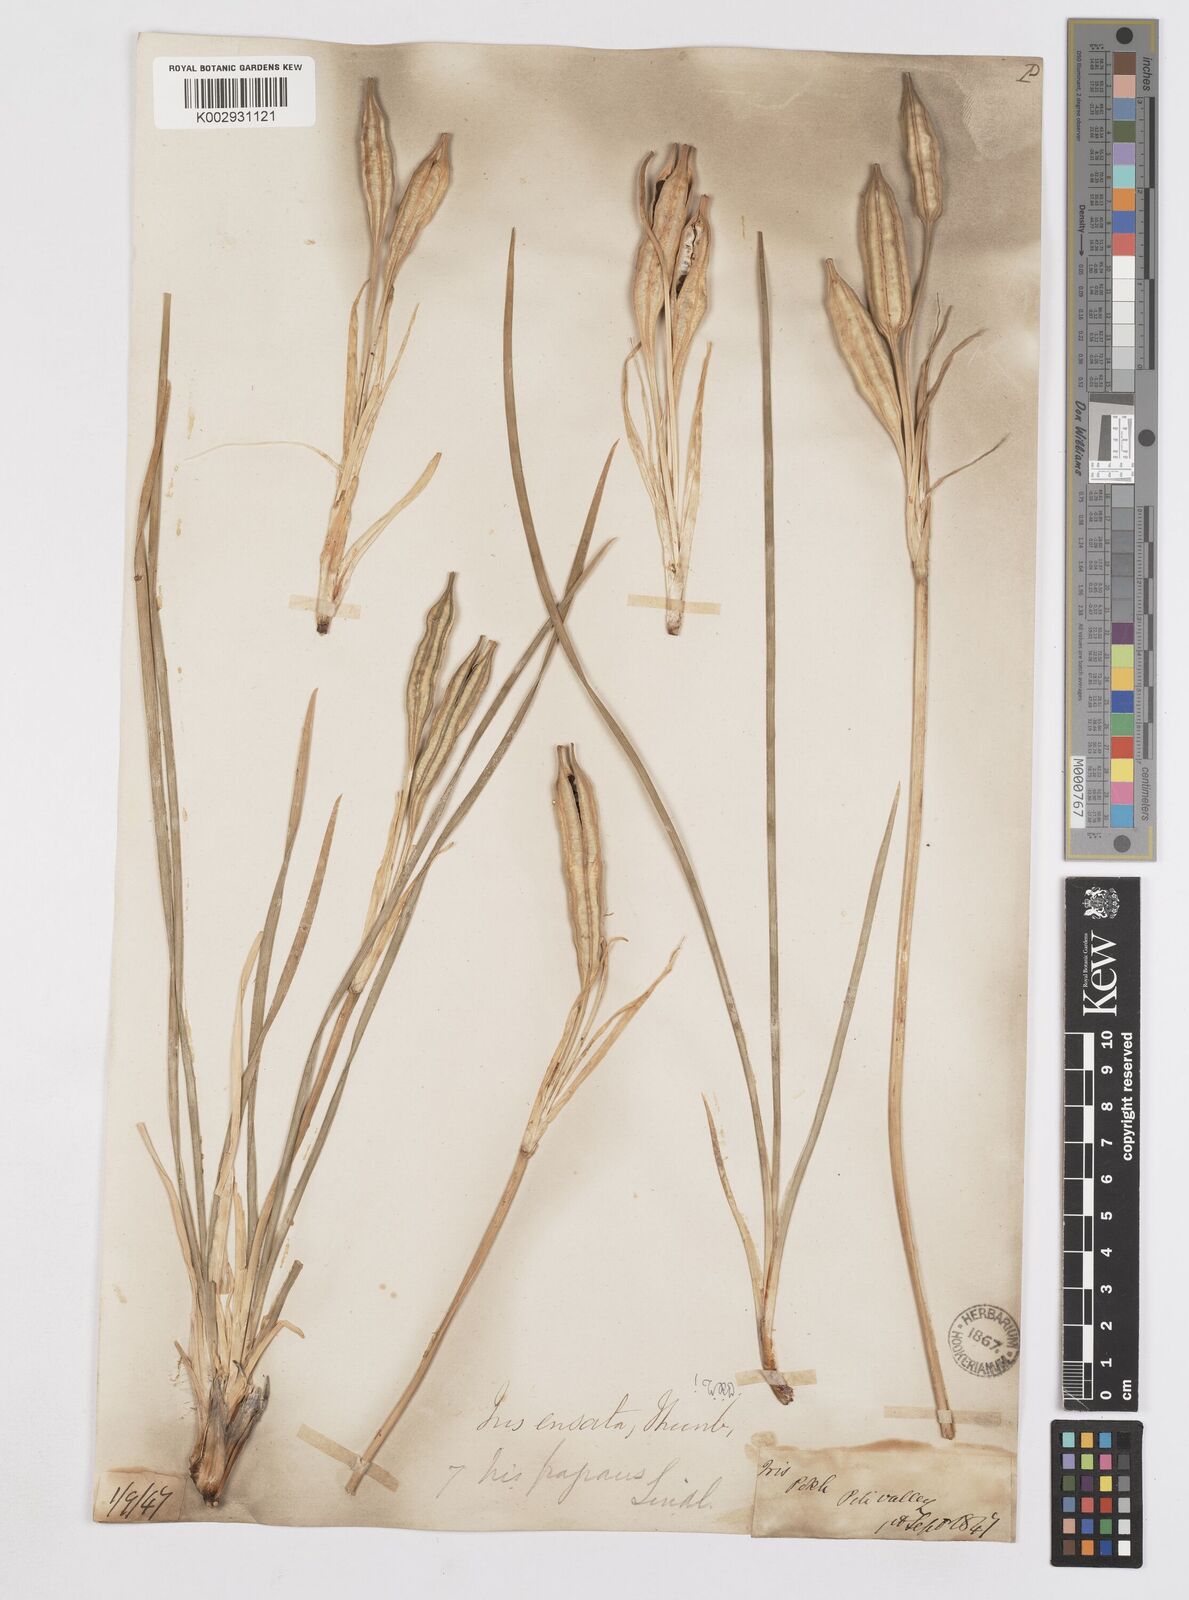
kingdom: Plantae
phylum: Tracheophyta
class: Liliopsida
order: Asparagales
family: Iridaceae
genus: Iris
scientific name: Iris ensata
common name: Beaked iris
